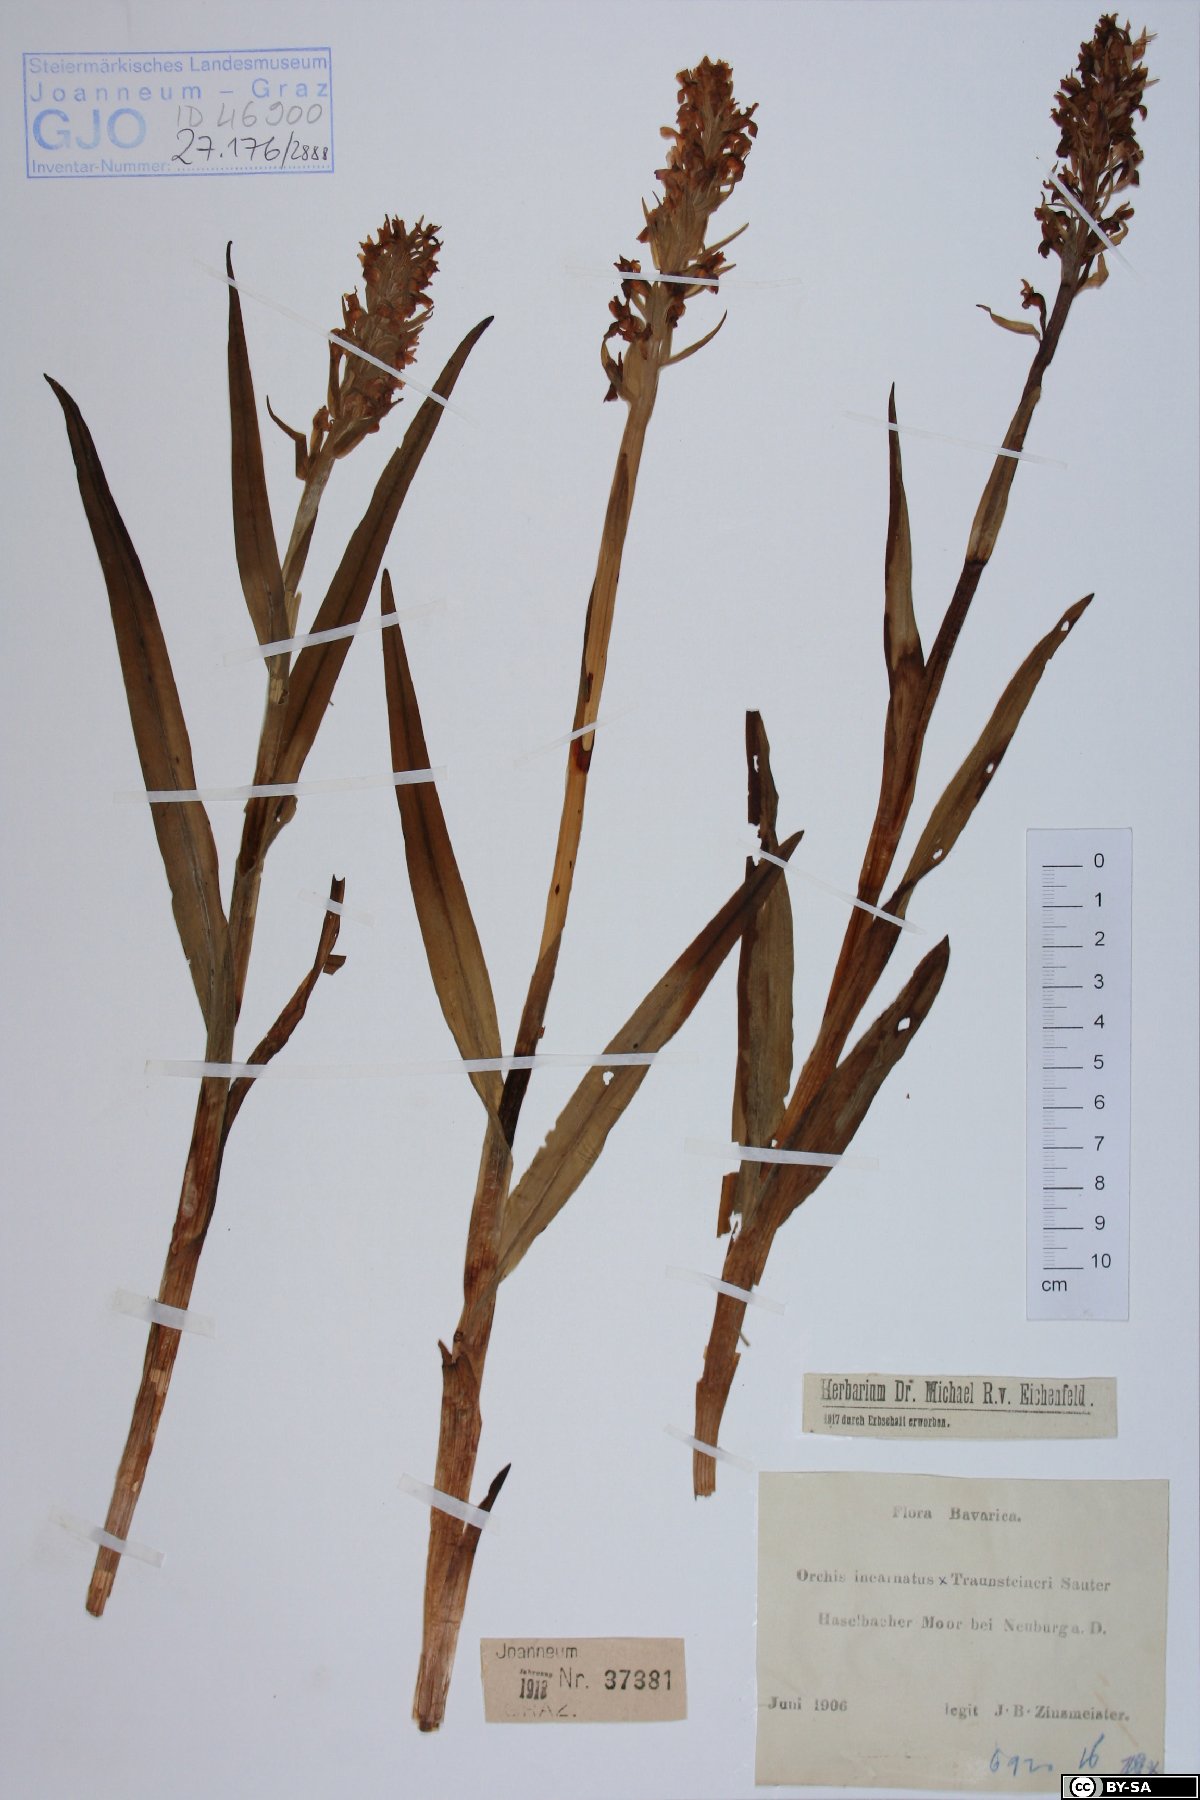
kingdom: Plantae
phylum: Tracheophyta
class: Liliopsida
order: Asparagales
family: Orchidaceae
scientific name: Orchidaceae
